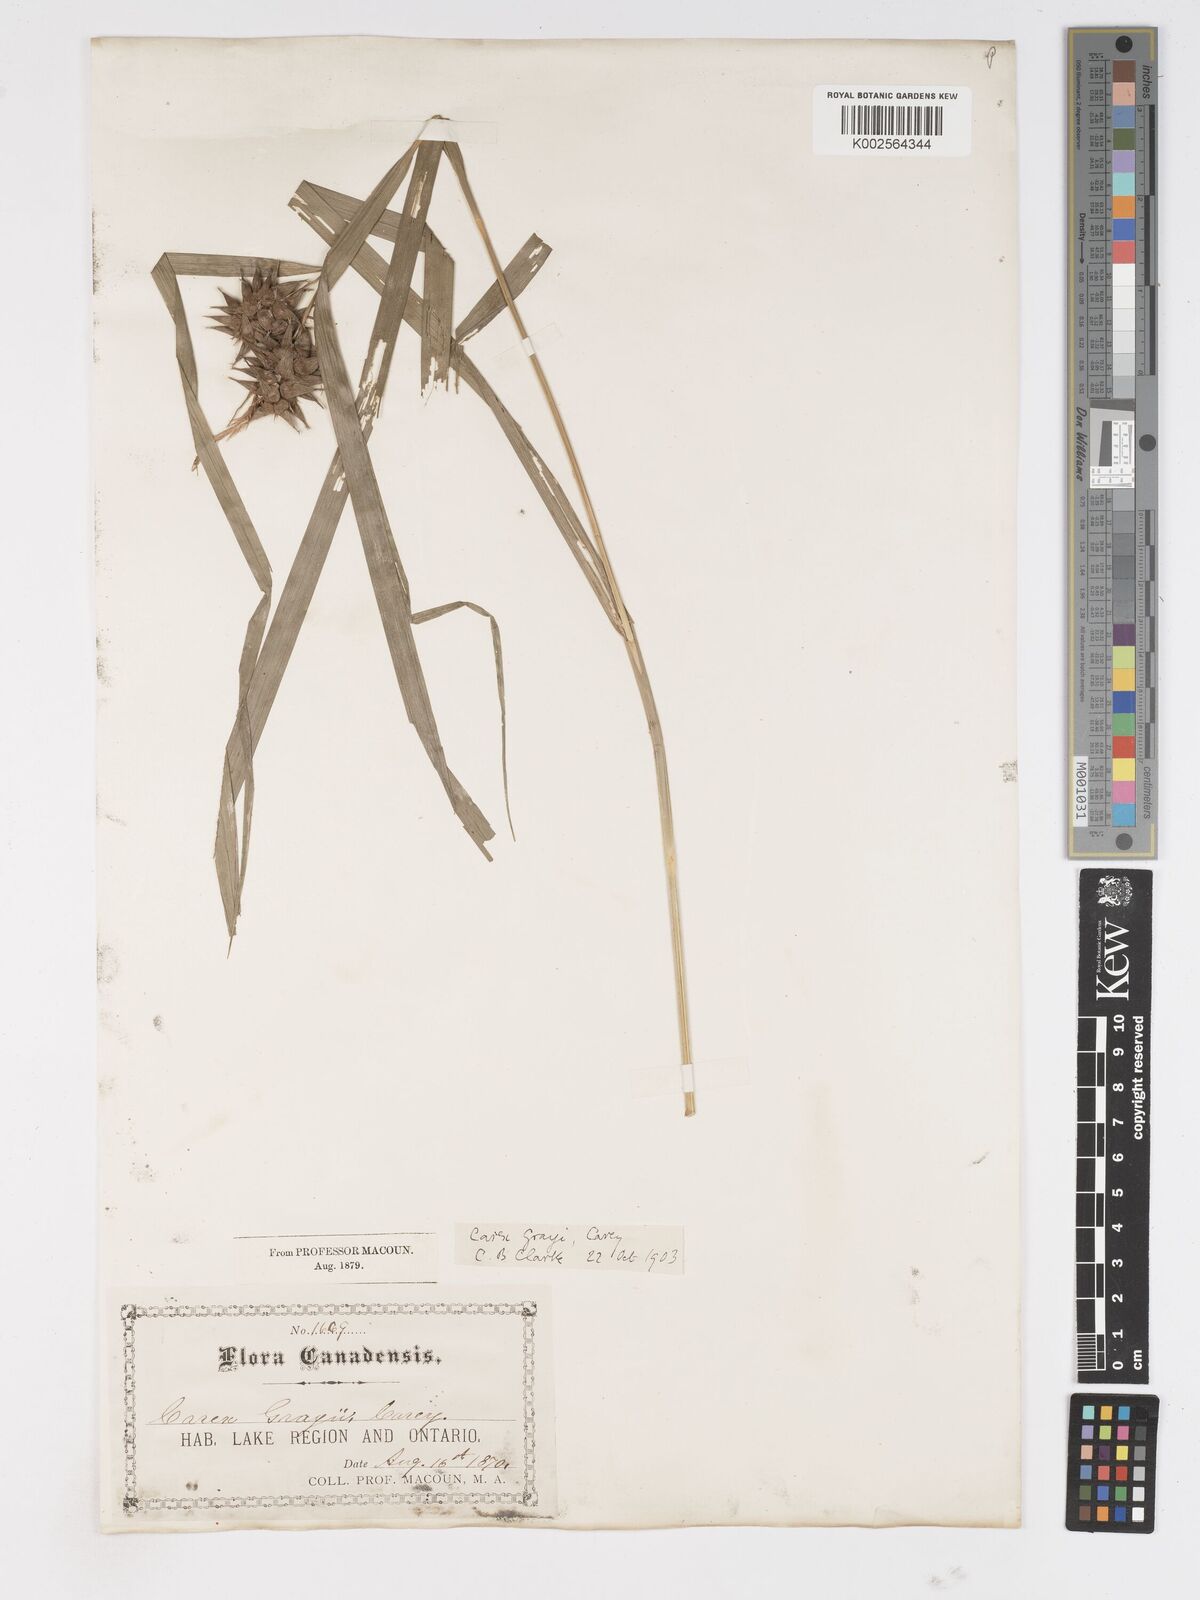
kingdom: Plantae
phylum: Tracheophyta
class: Liliopsida
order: Poales
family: Cyperaceae
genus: Carex
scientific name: Carex grayi
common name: Asa gray's sedge
